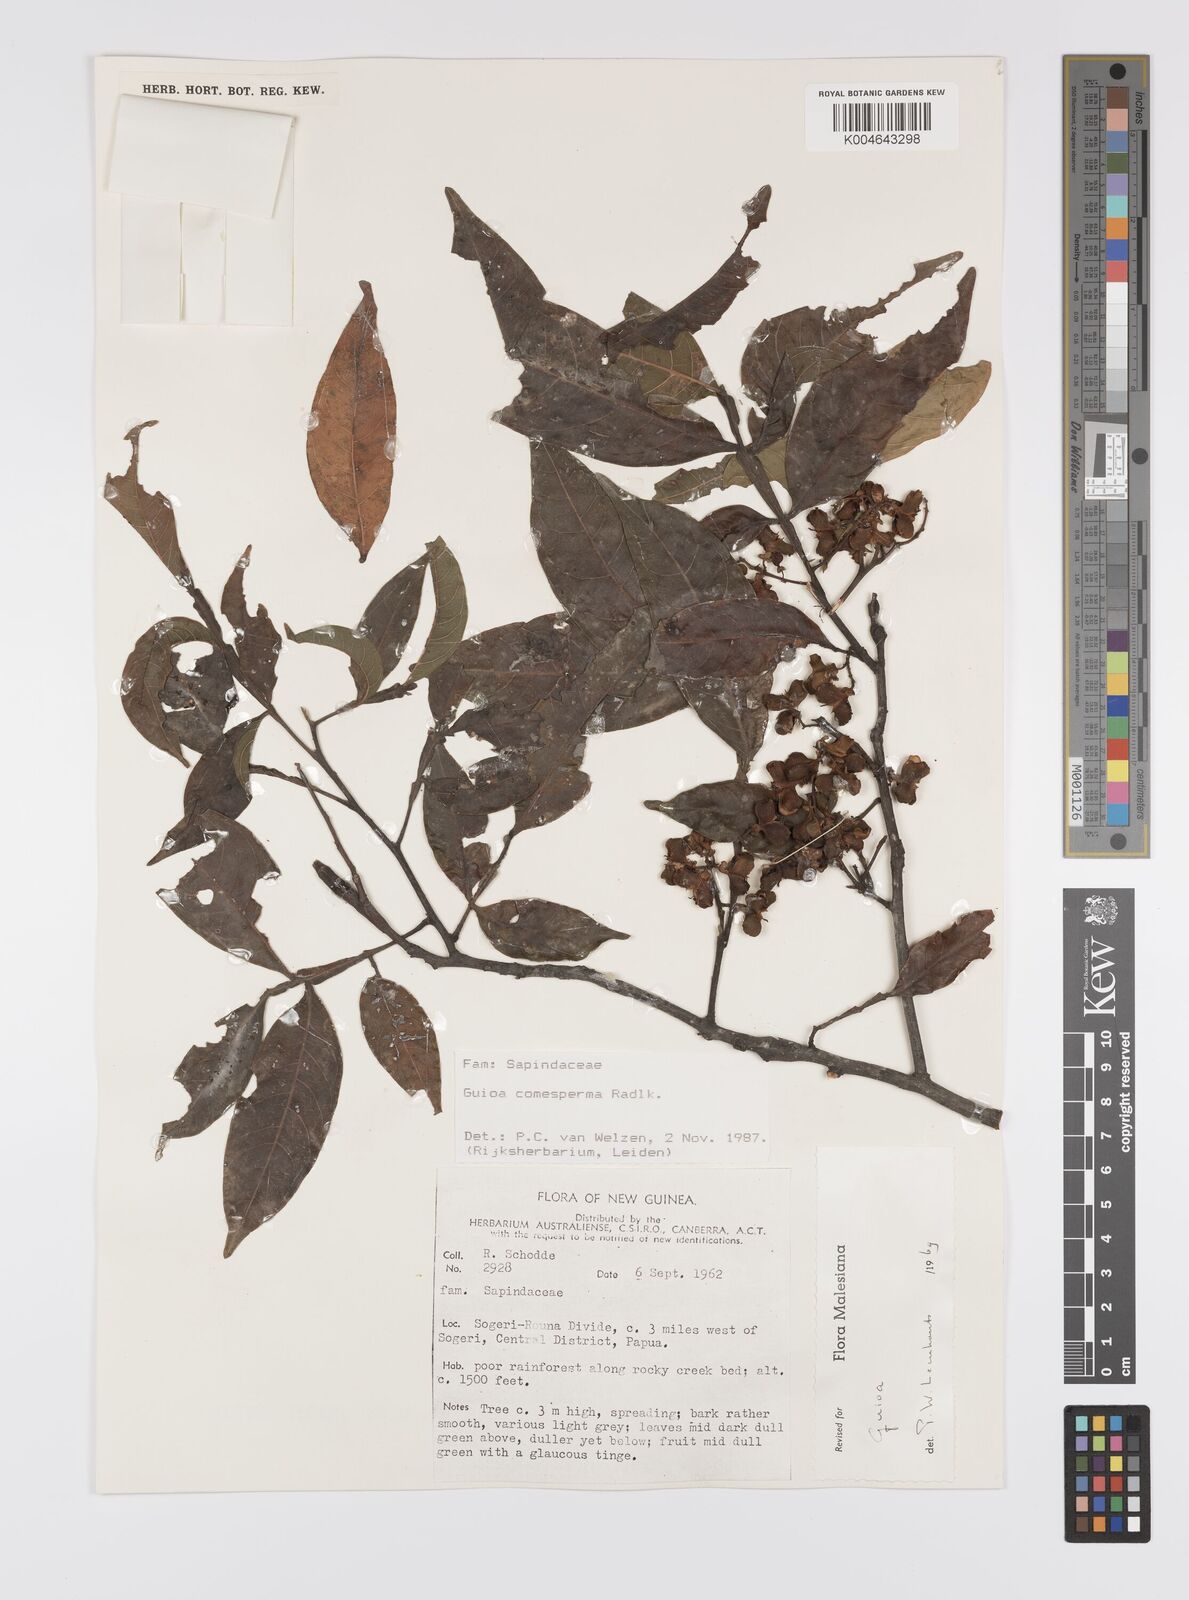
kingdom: Plantae
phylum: Tracheophyta
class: Magnoliopsida
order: Sapindales
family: Sapindaceae
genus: Guioa
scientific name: Guioa comesperma
